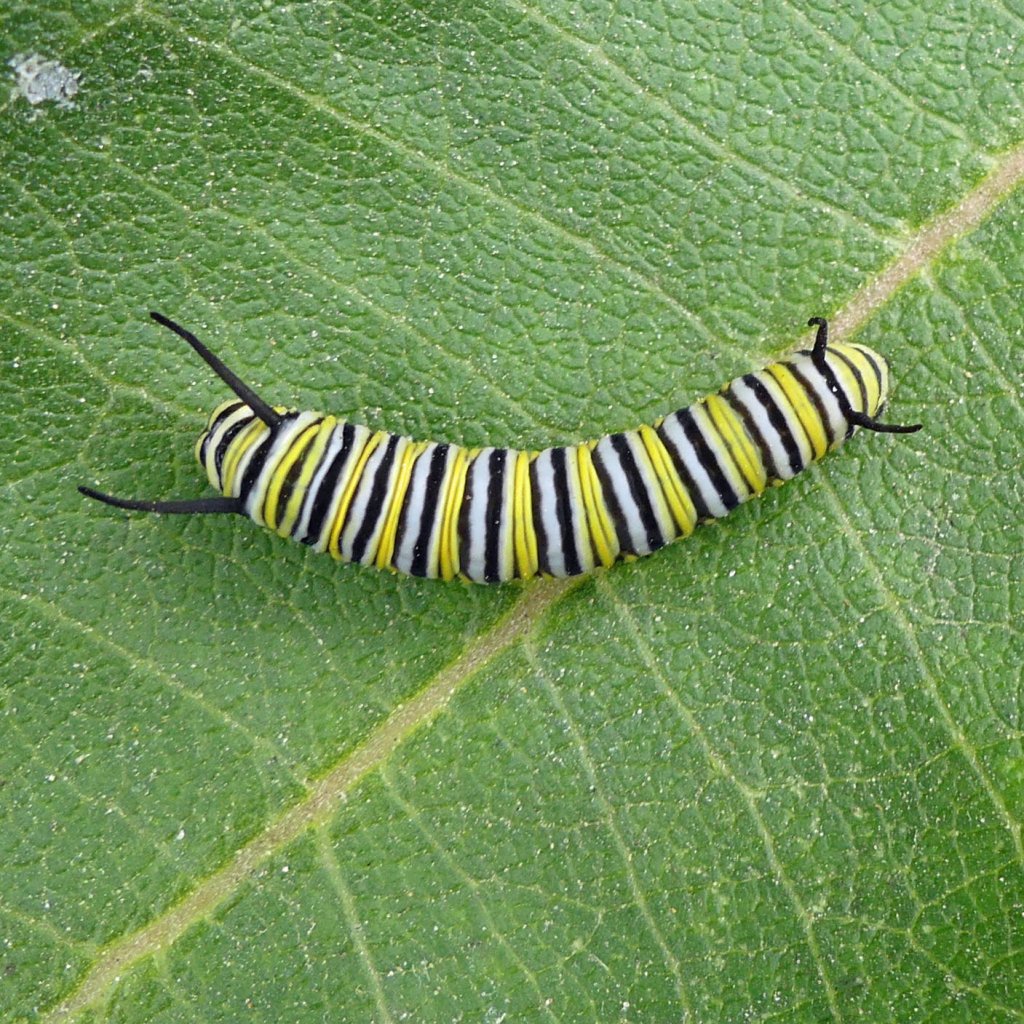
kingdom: Animalia
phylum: Arthropoda
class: Insecta
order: Lepidoptera
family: Nymphalidae
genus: Danaus
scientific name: Danaus plexippus
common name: Monarch
